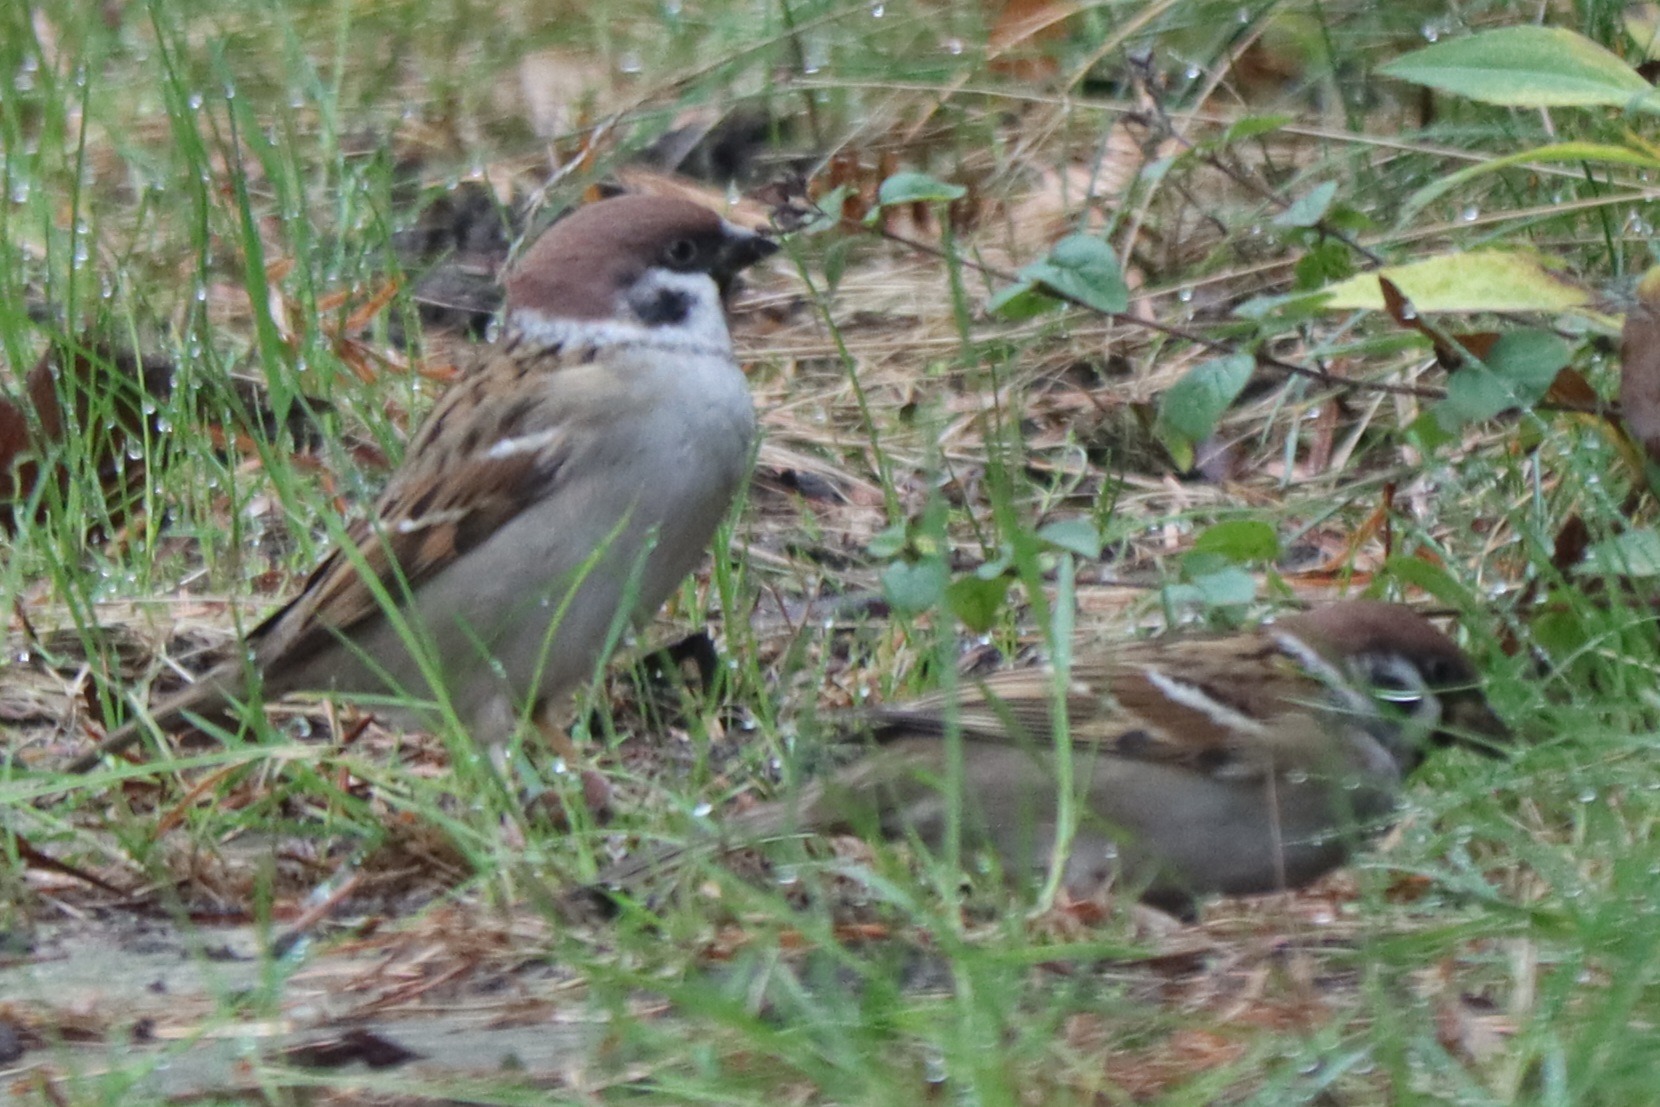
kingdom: Animalia
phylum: Chordata
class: Aves
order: Passeriformes
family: Passeridae
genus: Passer
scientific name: Passer montanus
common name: Skovspurv
